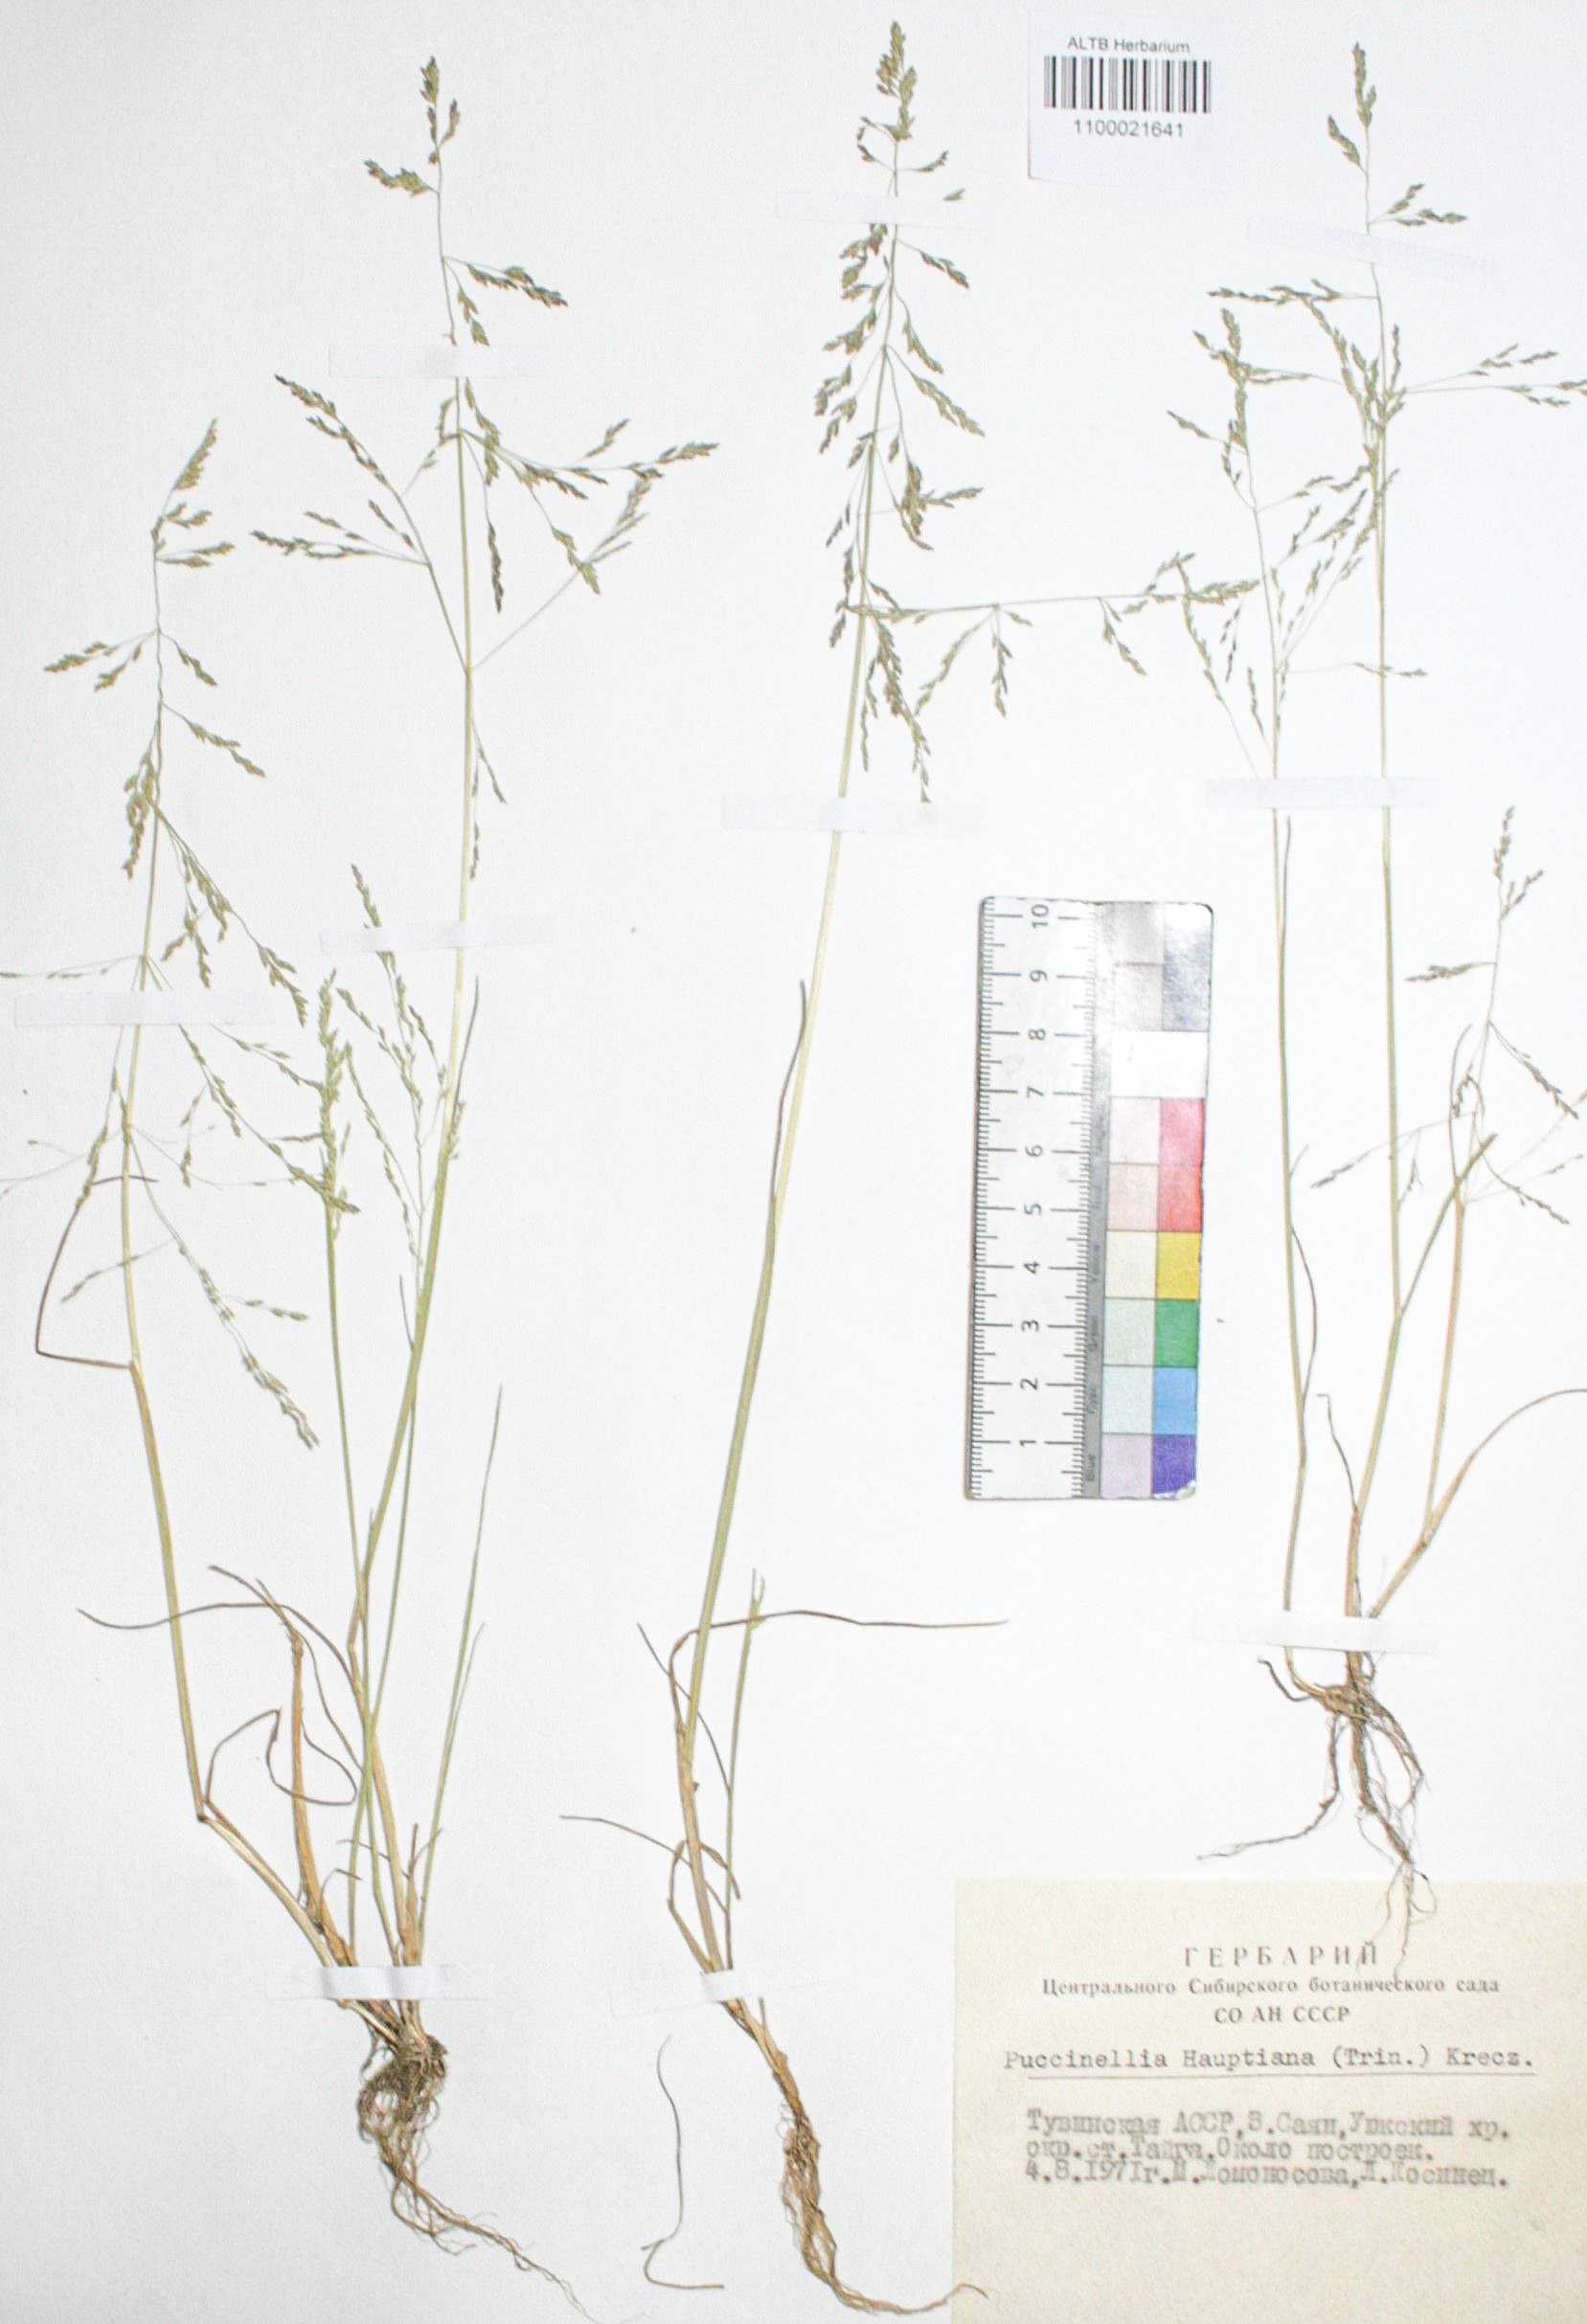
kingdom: Plantae
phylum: Tracheophyta
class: Liliopsida
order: Poales
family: Poaceae
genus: Puccinellia
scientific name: Puccinellia hauptiana
